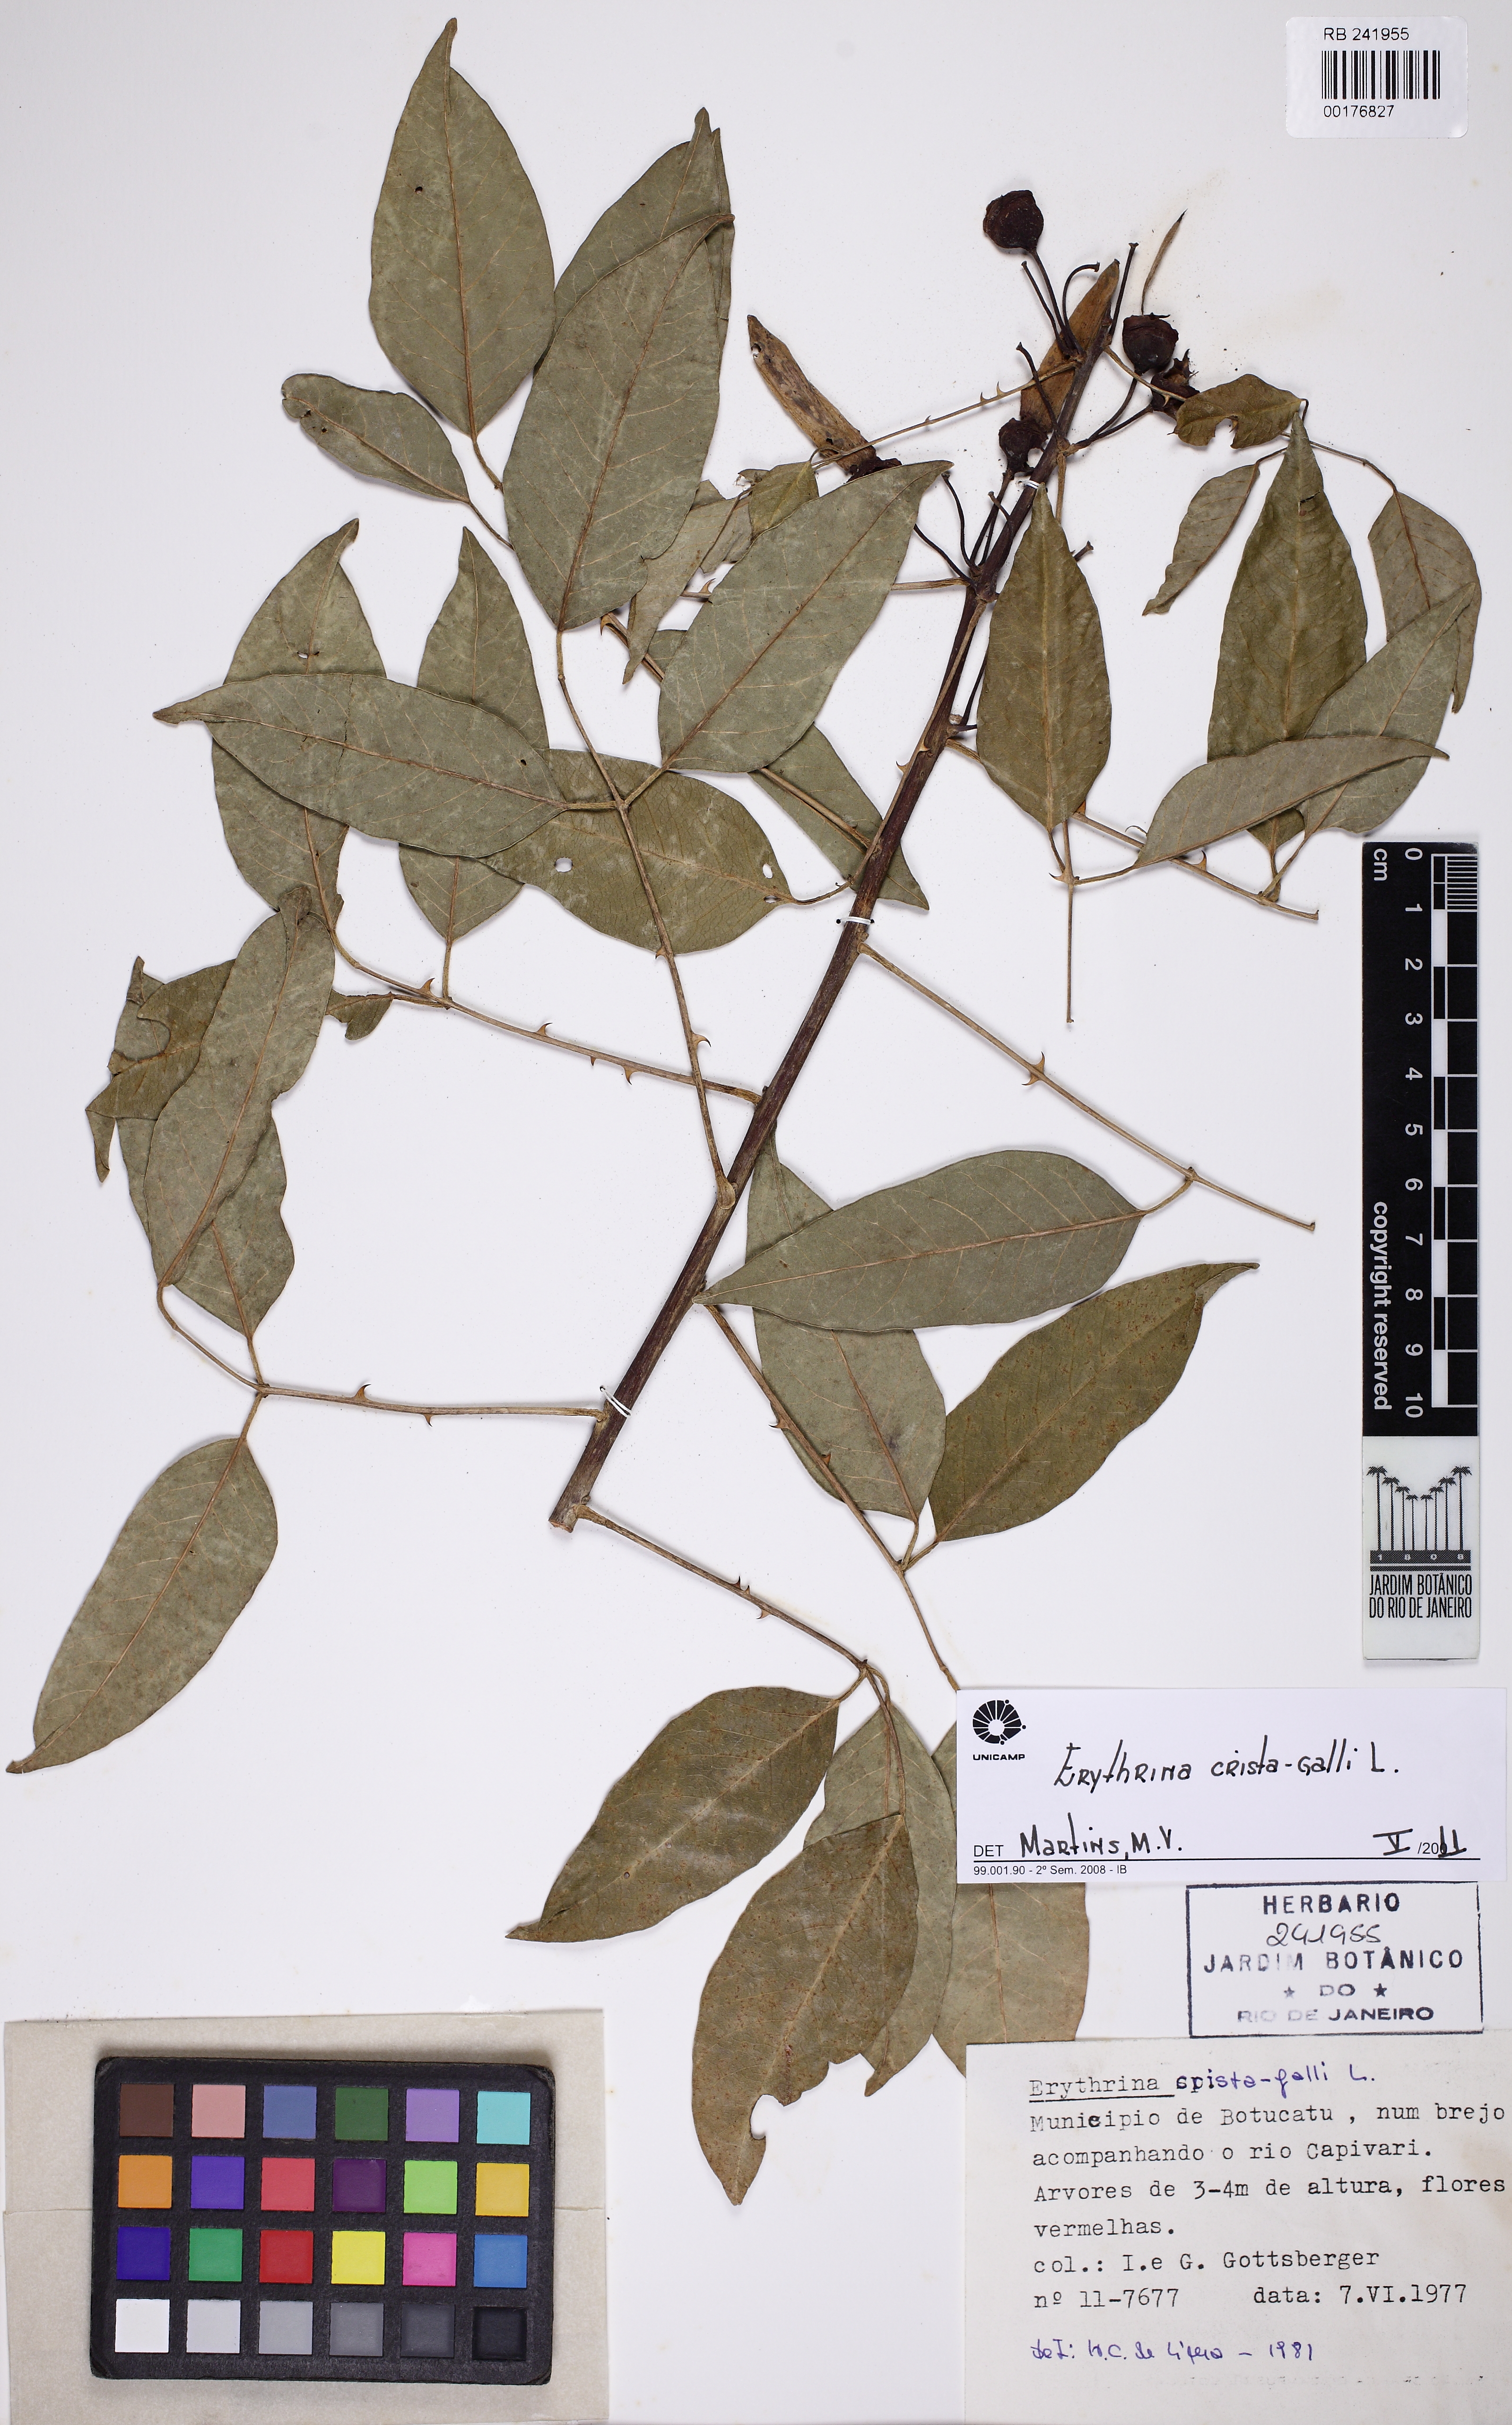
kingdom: Plantae
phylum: Tracheophyta
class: Magnoliopsida
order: Fabales
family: Fabaceae
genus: Erythrina
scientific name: Erythrina crista-galli
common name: Cockspur coral tree
